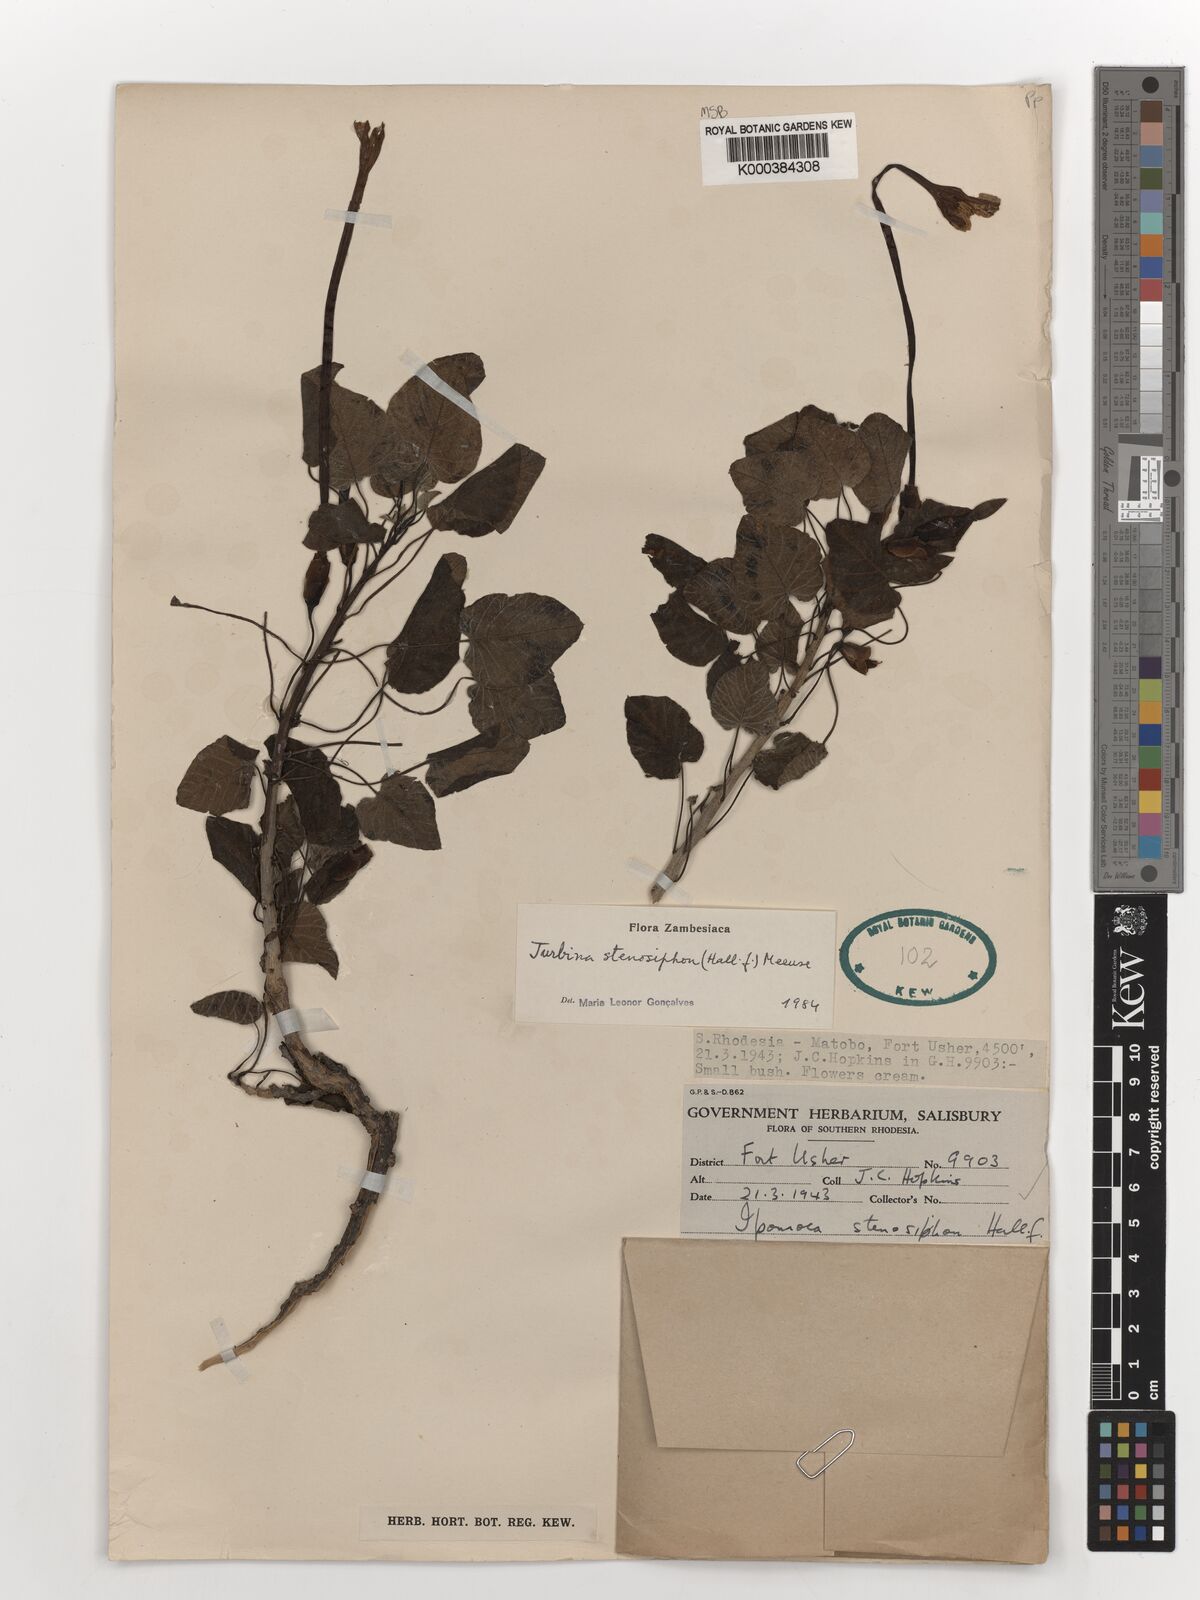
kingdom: Plantae
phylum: Tracheophyta
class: Magnoliopsida
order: Solanales
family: Convolvulaceae
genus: Ipomoea
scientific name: Ipomoea stenosiphon
